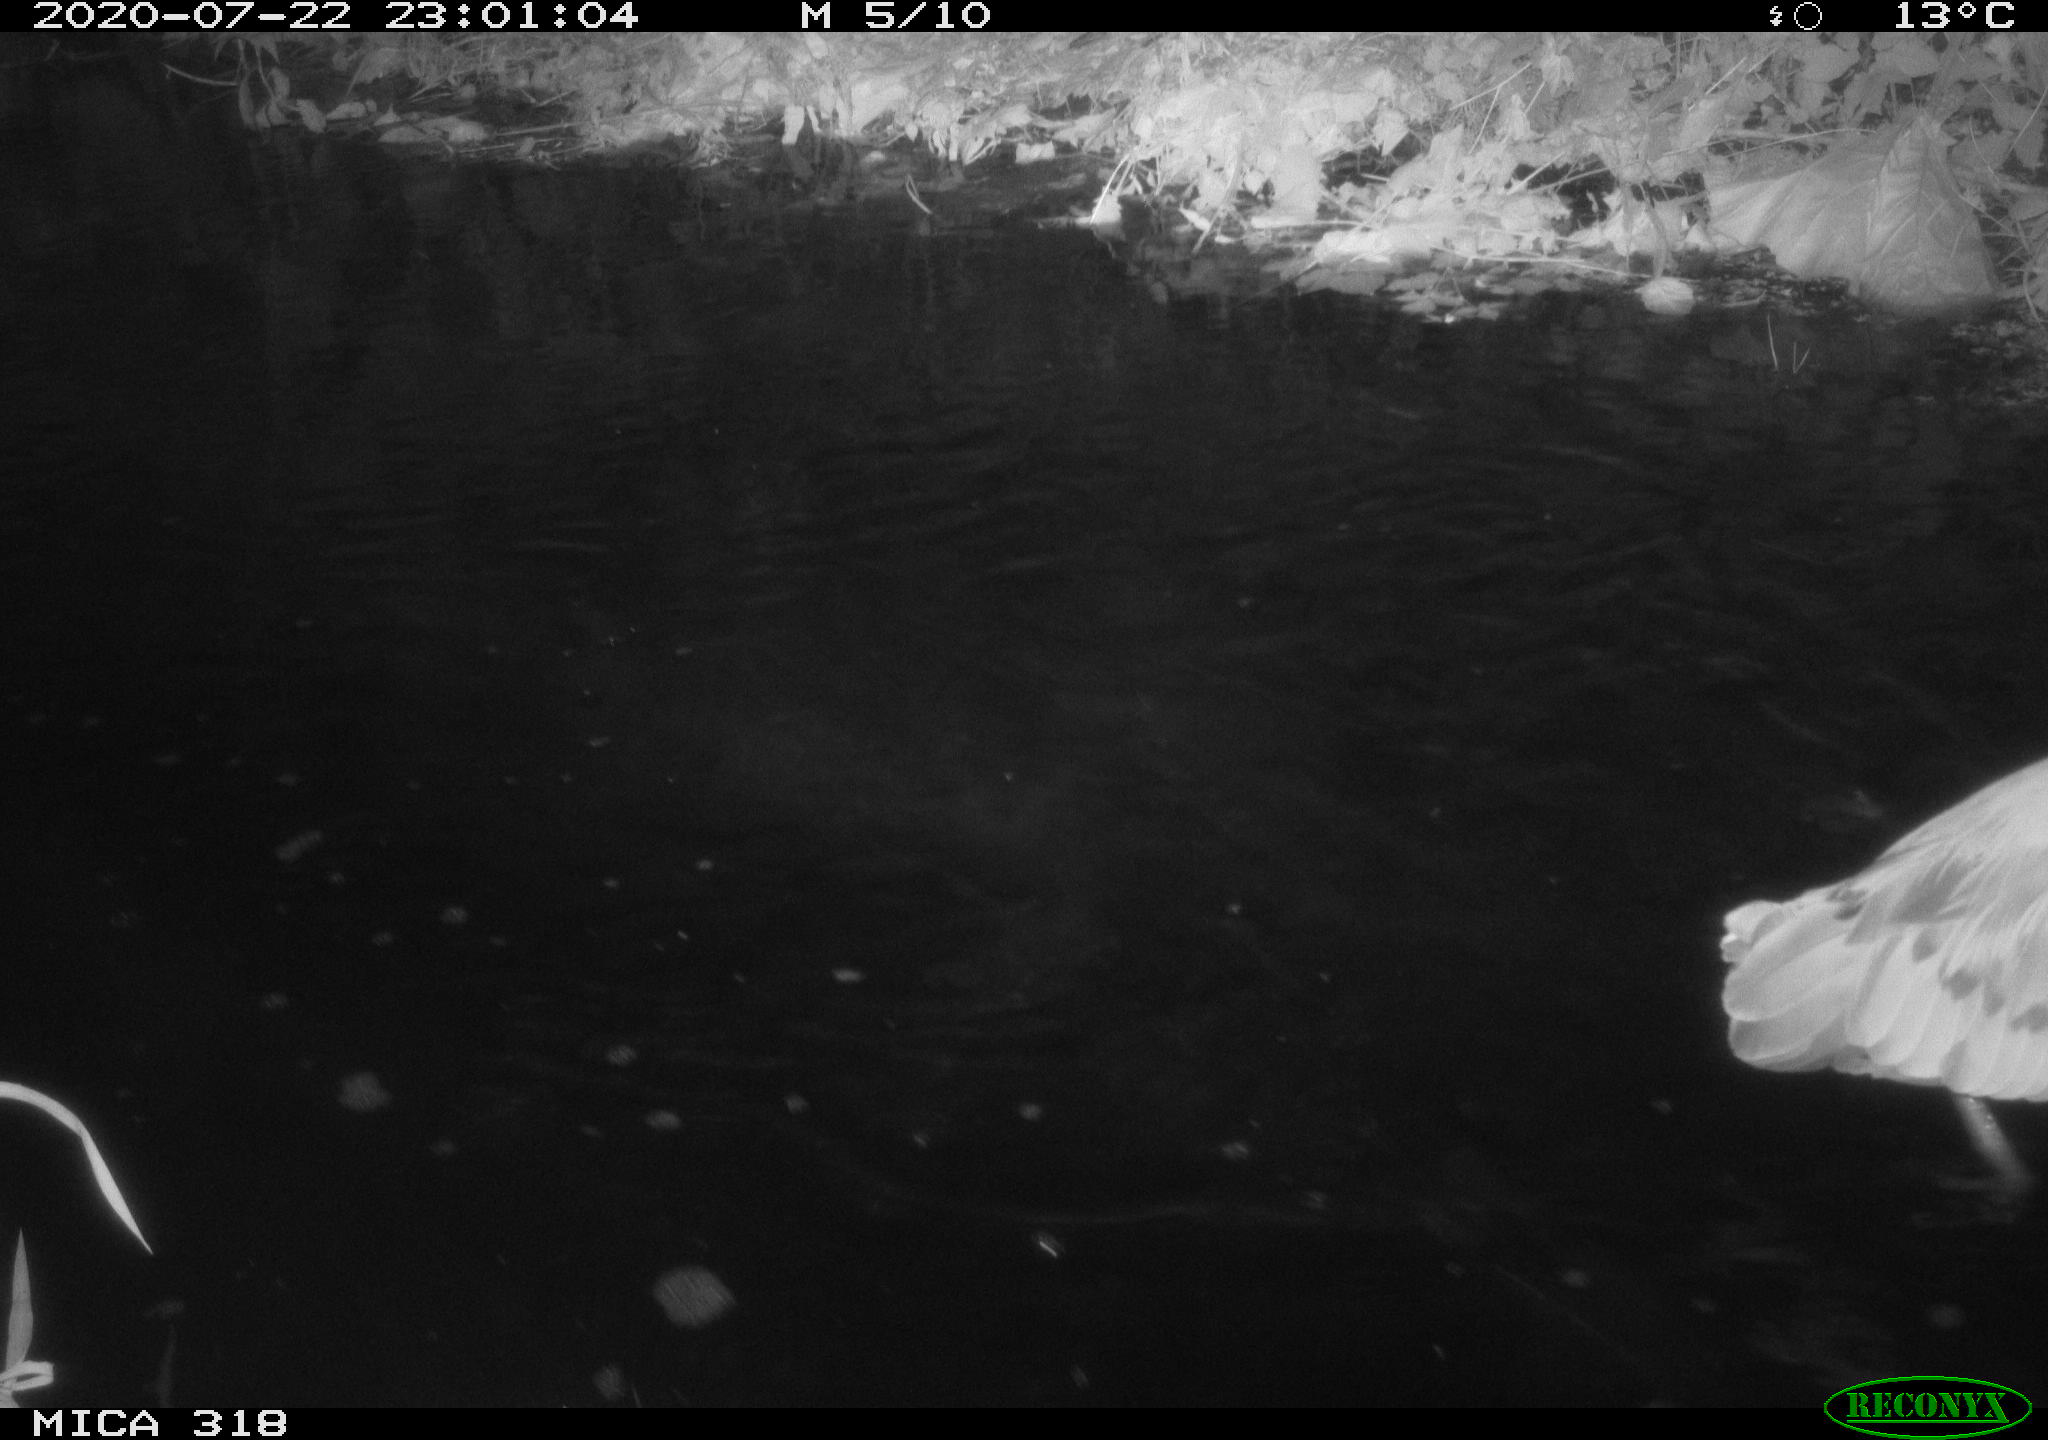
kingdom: Animalia
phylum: Chordata
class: Aves
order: Pelecaniformes
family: Ardeidae
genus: Ardea
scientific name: Ardea cinerea
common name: Grey heron
